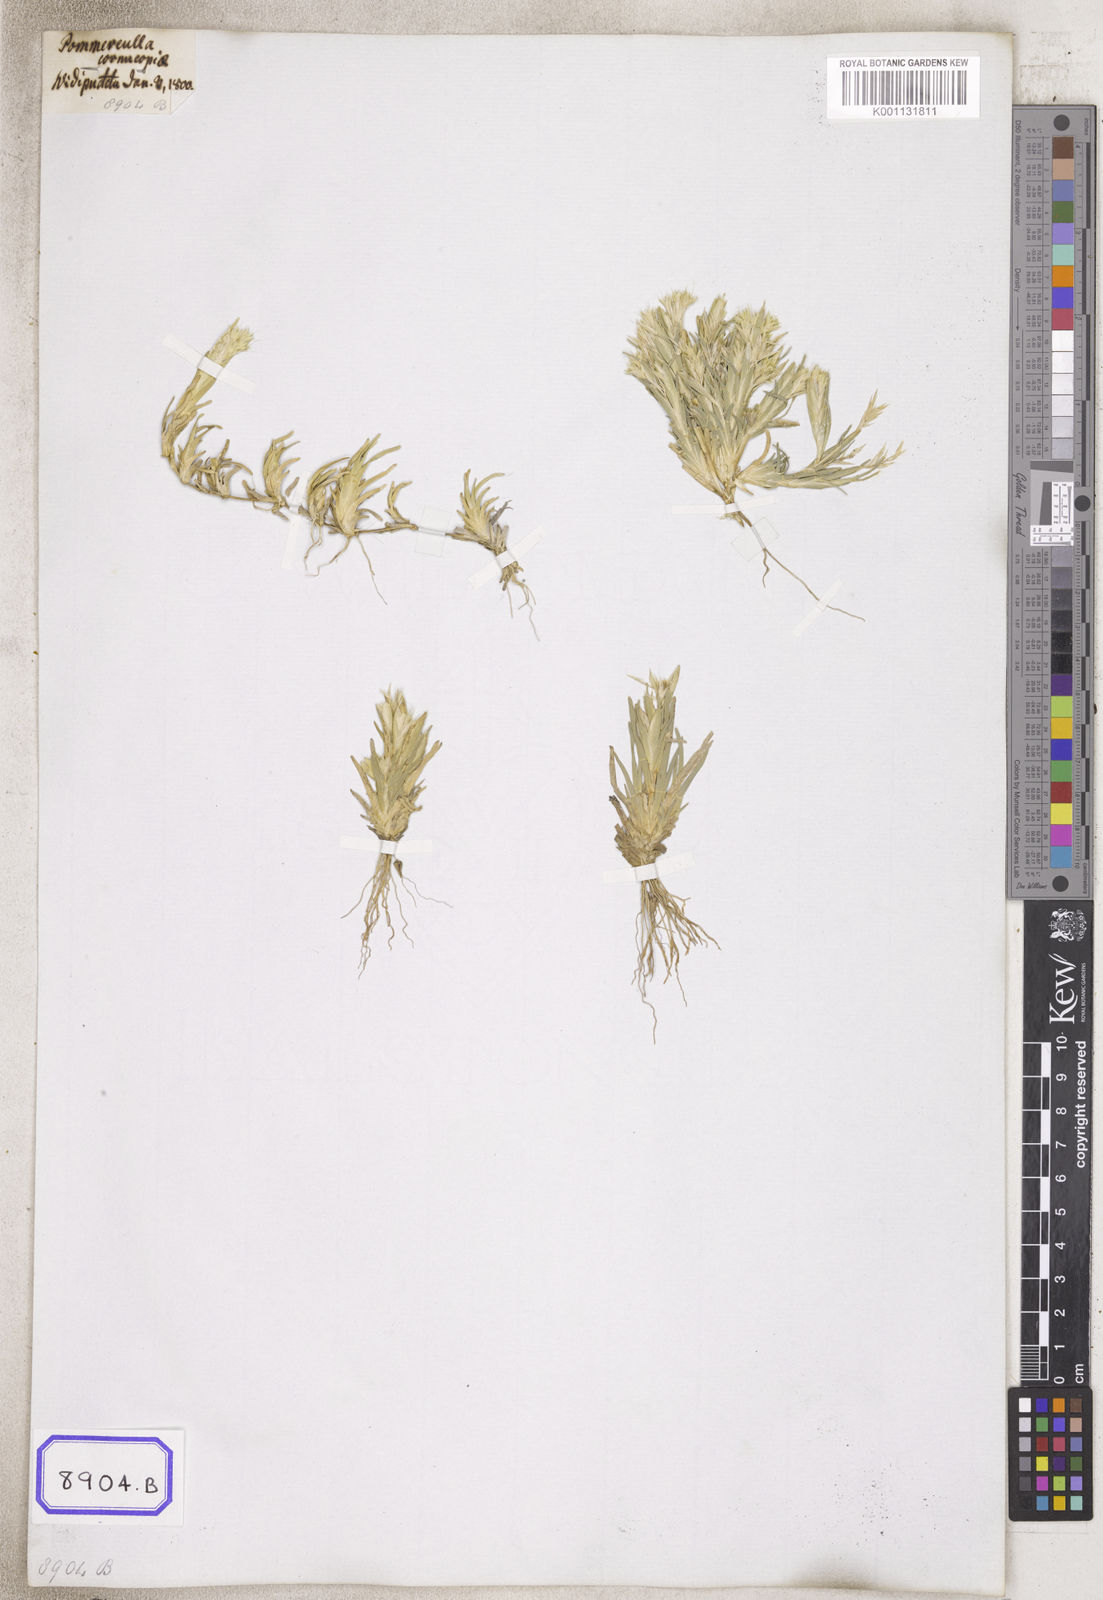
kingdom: Plantae
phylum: Tracheophyta
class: Liliopsida
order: Poales
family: Poaceae
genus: Pommereulla
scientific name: Pommereulla cornucopiae
